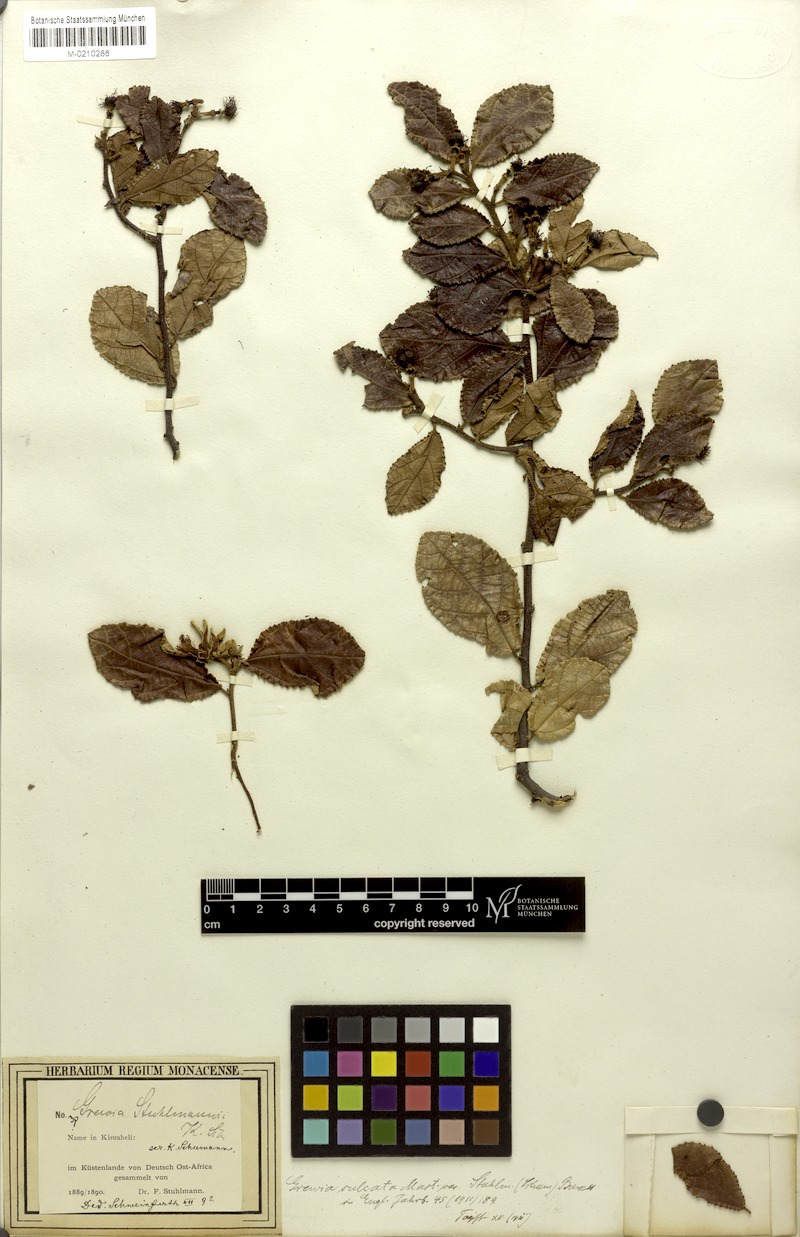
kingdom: Plantae
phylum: Tracheophyta
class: Magnoliopsida
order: Malvales
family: Malvaceae
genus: Grewia
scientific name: Grewia stuhlmannii
